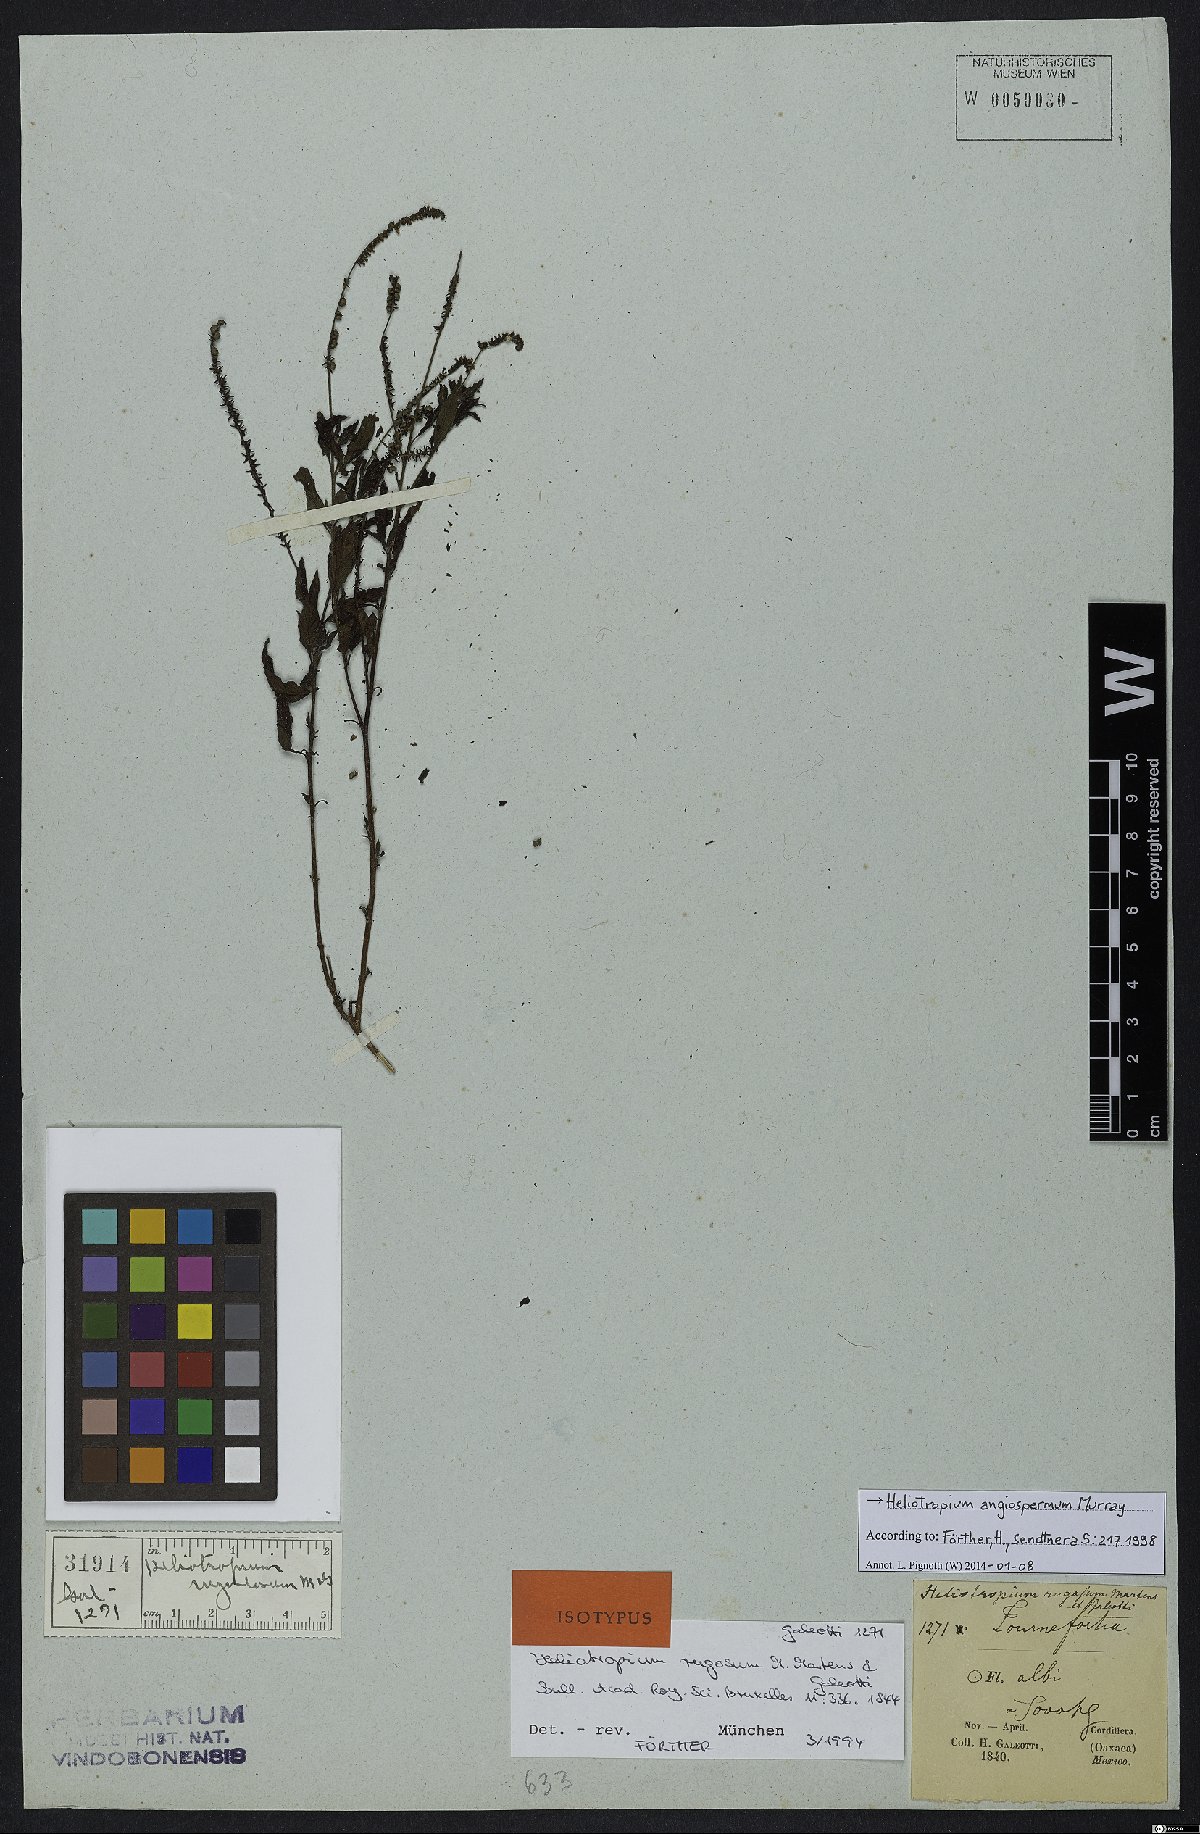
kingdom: Plantae
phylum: Tracheophyta
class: Magnoliopsida
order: Boraginales
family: Heliotropiaceae
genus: Heliotropium
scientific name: Heliotropium angiospermum
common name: Eye bright
